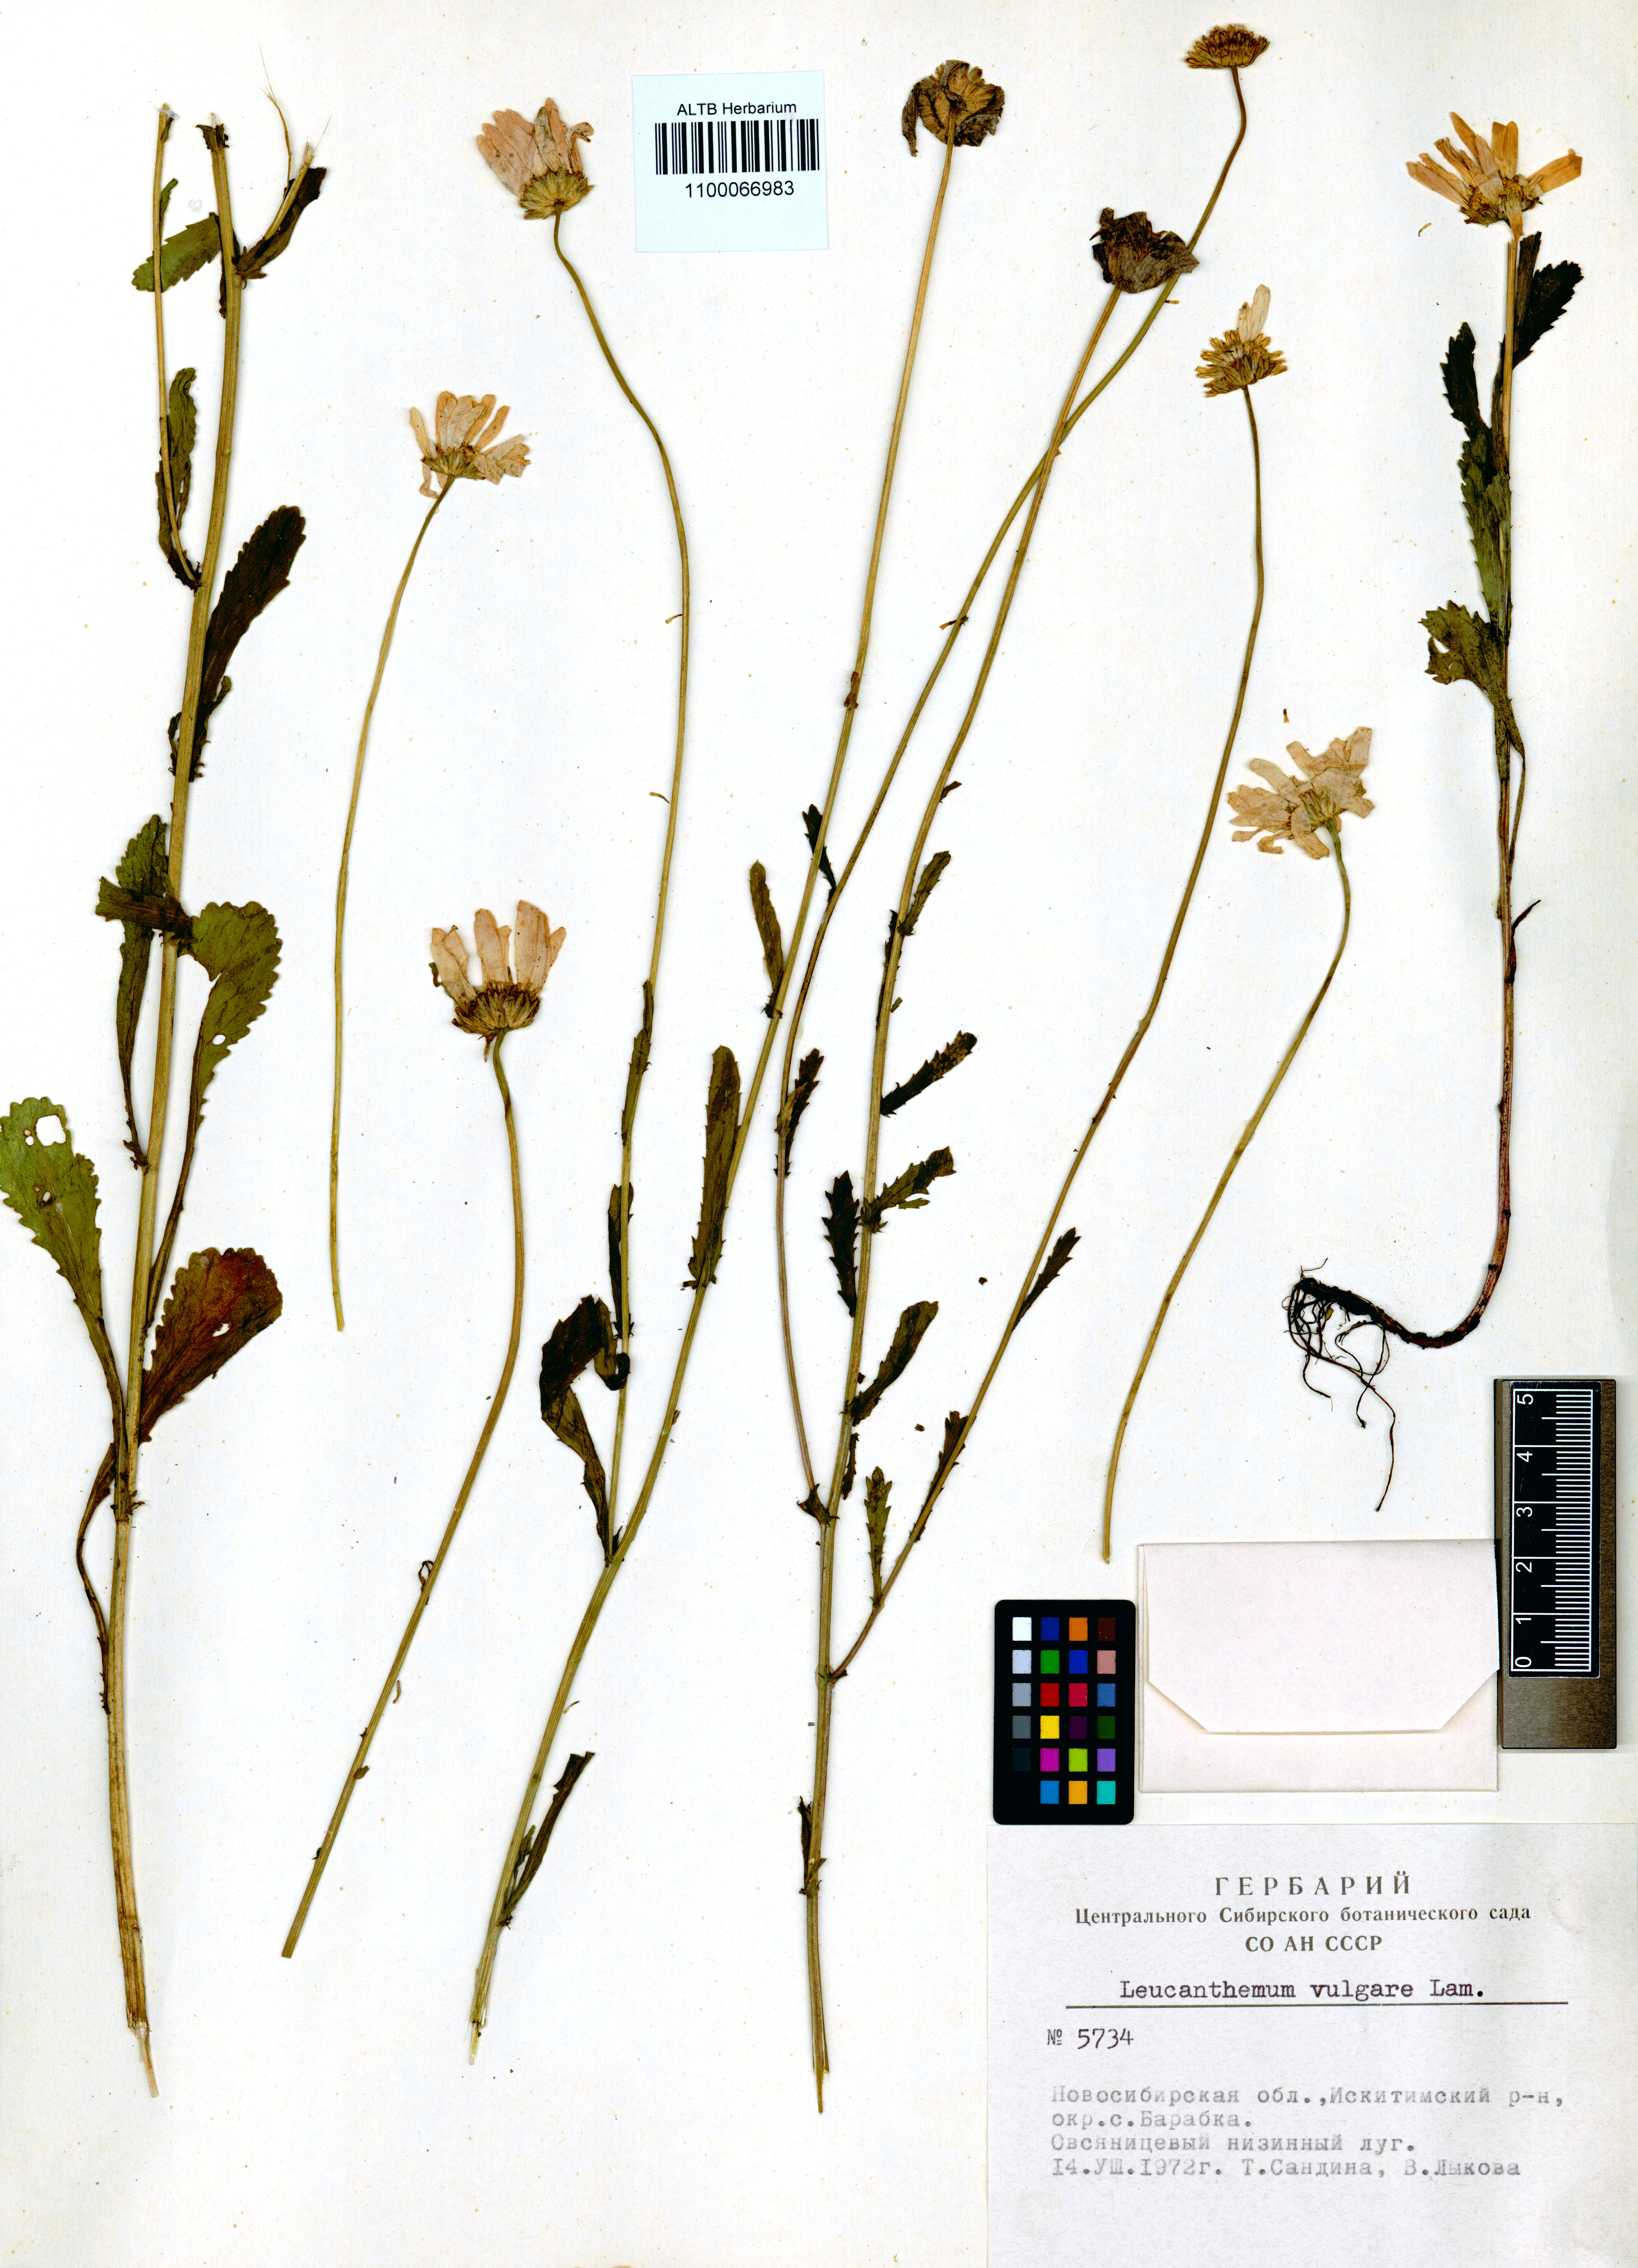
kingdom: Plantae
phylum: Tracheophyta
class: Magnoliopsida
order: Asterales
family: Asteraceae
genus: Leucanthemum
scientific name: Leucanthemum vulgare
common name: Oxeye daisy
